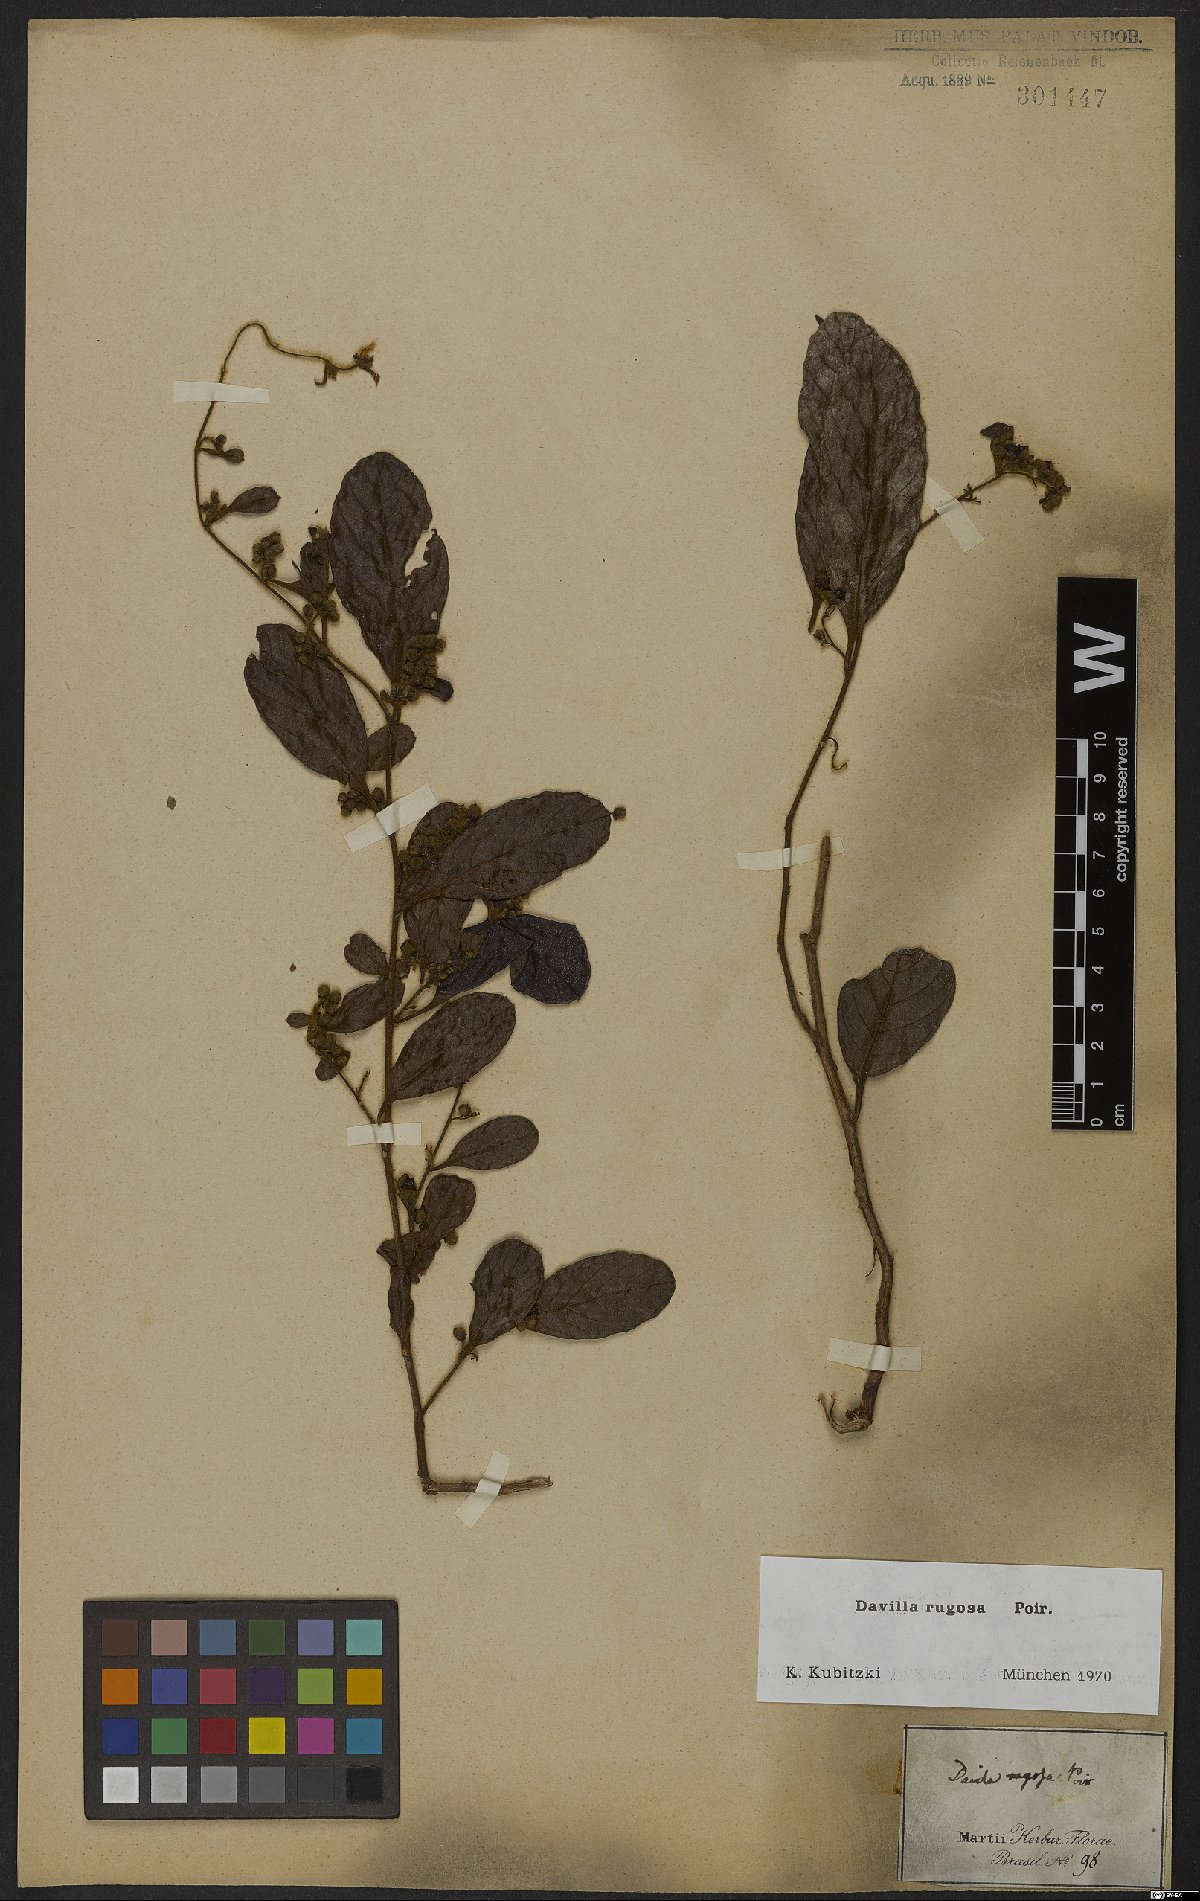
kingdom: Plantae
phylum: Tracheophyta
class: Magnoliopsida
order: Dilleniales
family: Dilleniaceae
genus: Davilla
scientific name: Davilla rugosa
